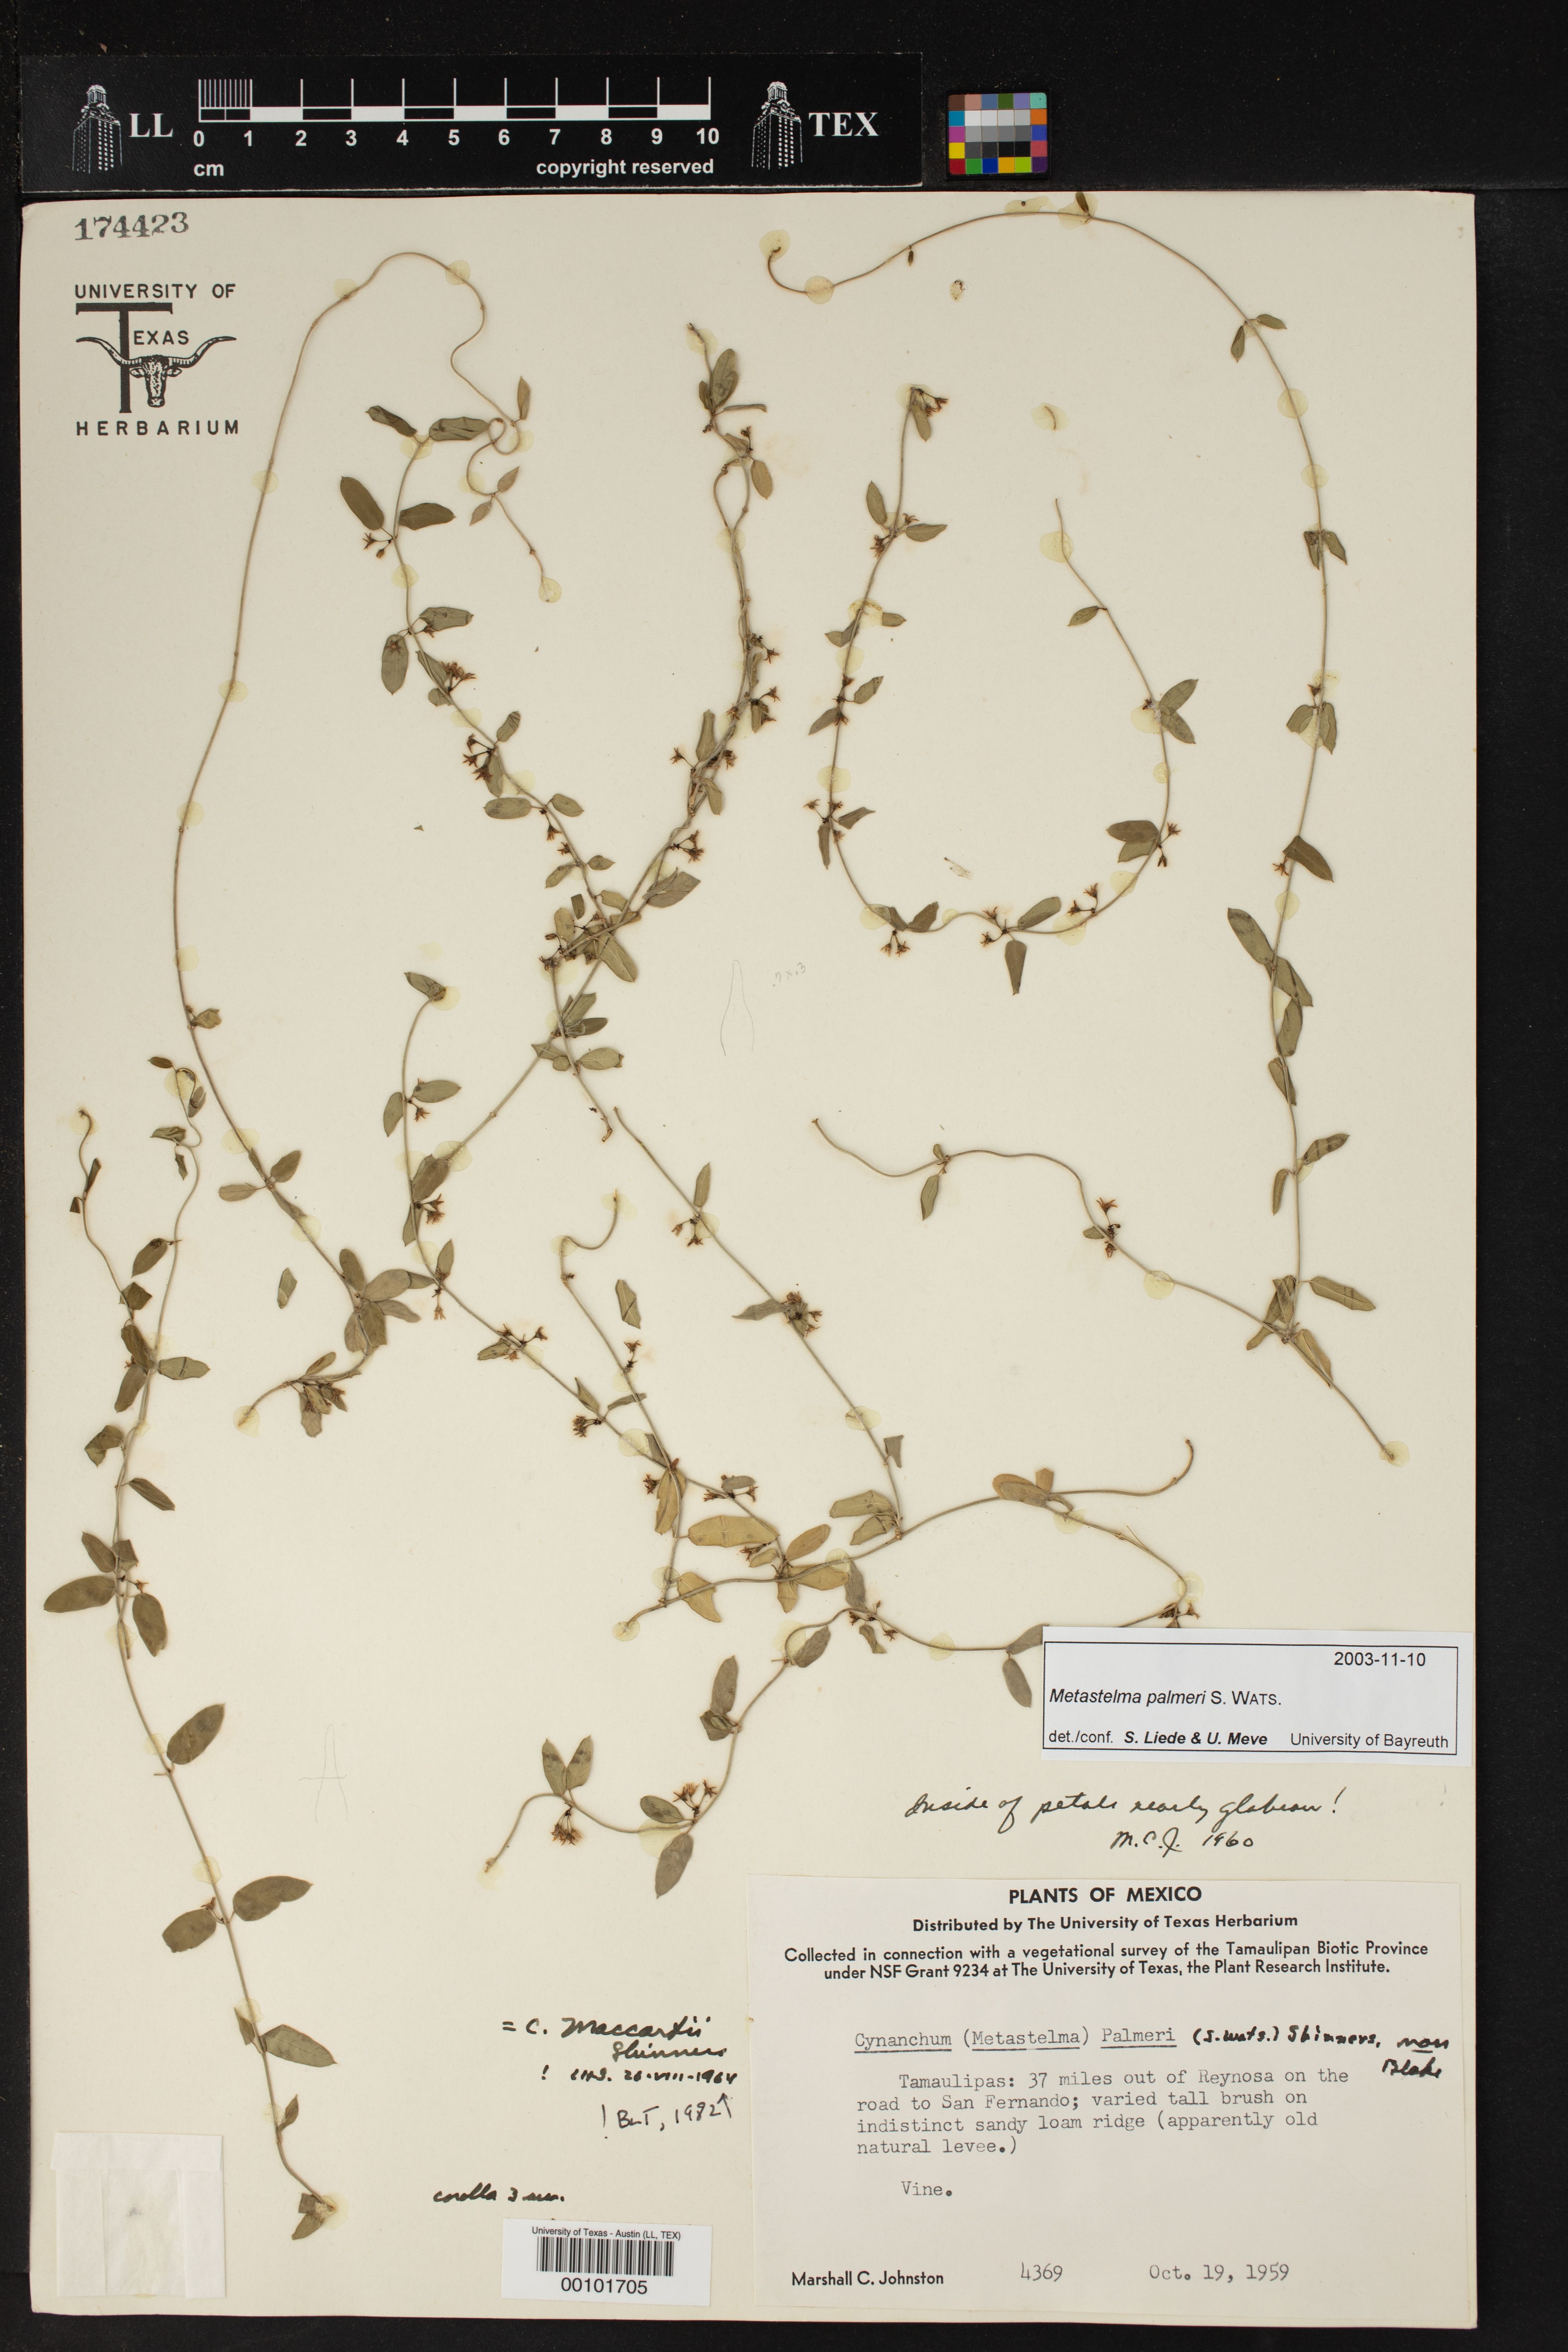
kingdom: Plantae
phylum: Tracheophyta
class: Magnoliopsida
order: Gentianales
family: Apocynaceae
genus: Metastelma
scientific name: Metastelma palmeri
